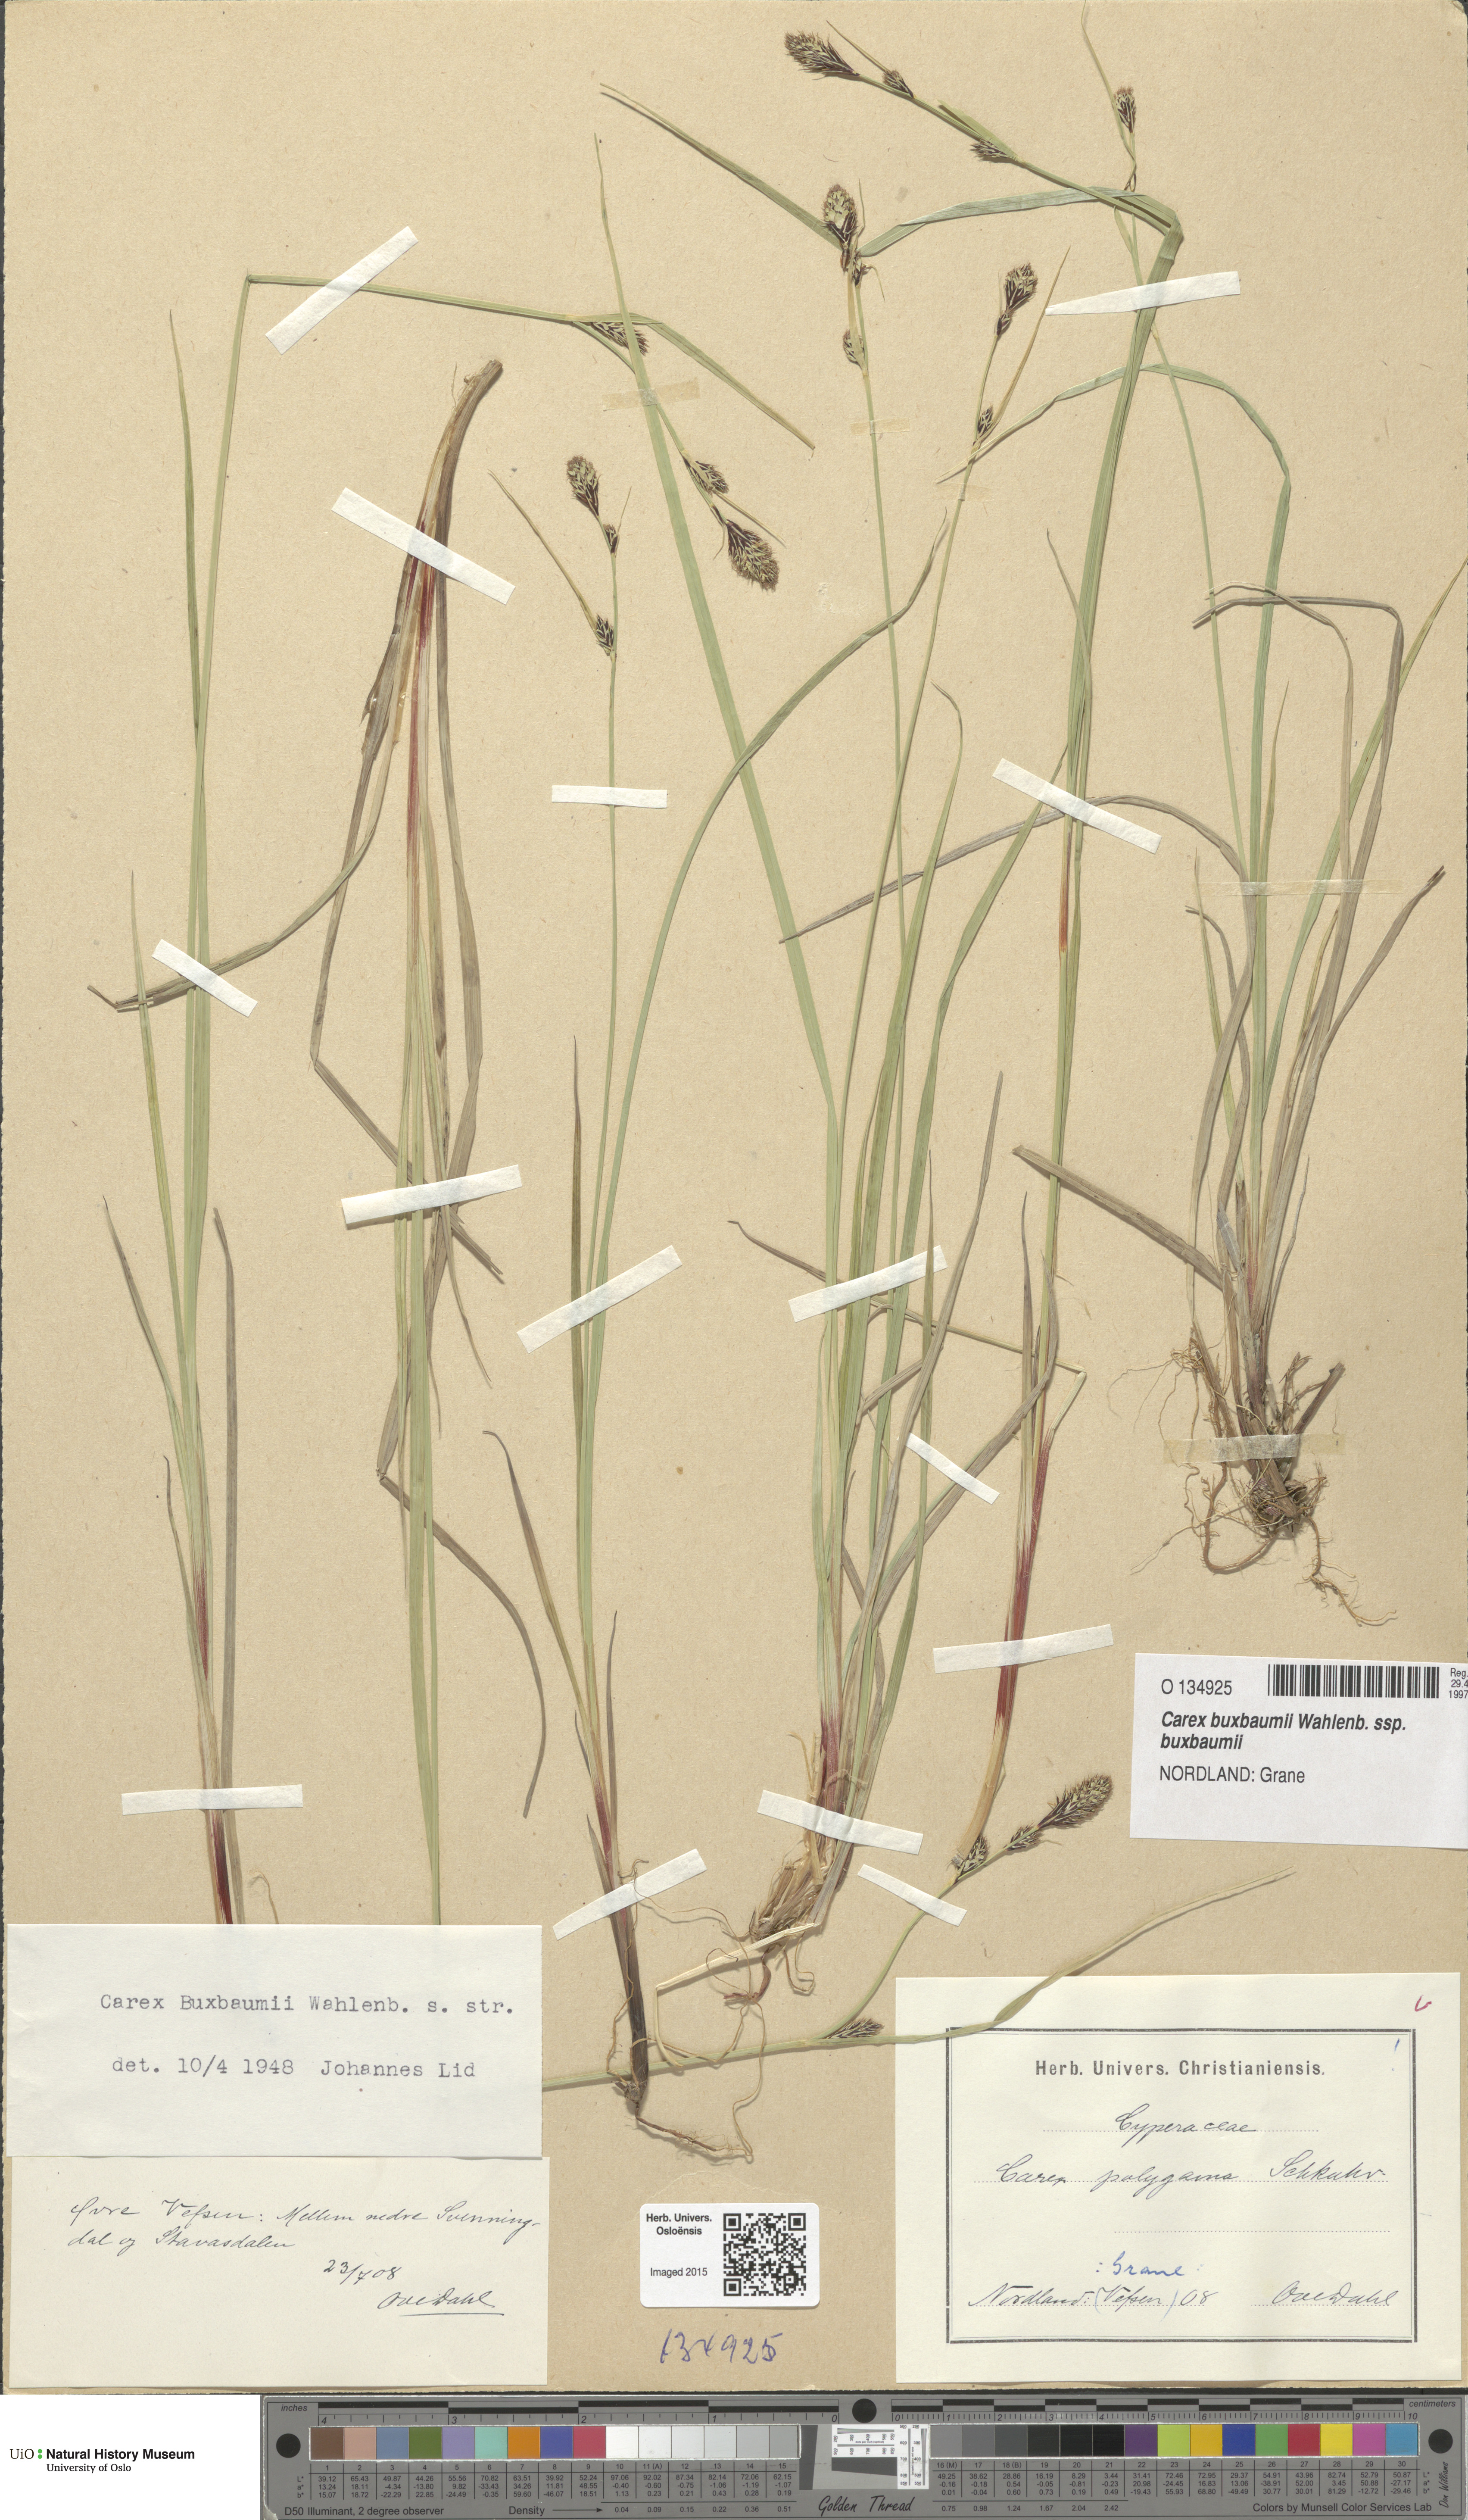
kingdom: Plantae
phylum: Tracheophyta
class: Liliopsida
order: Poales
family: Cyperaceae
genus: Carex
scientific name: Carex buxbaumii
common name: Club sedge
